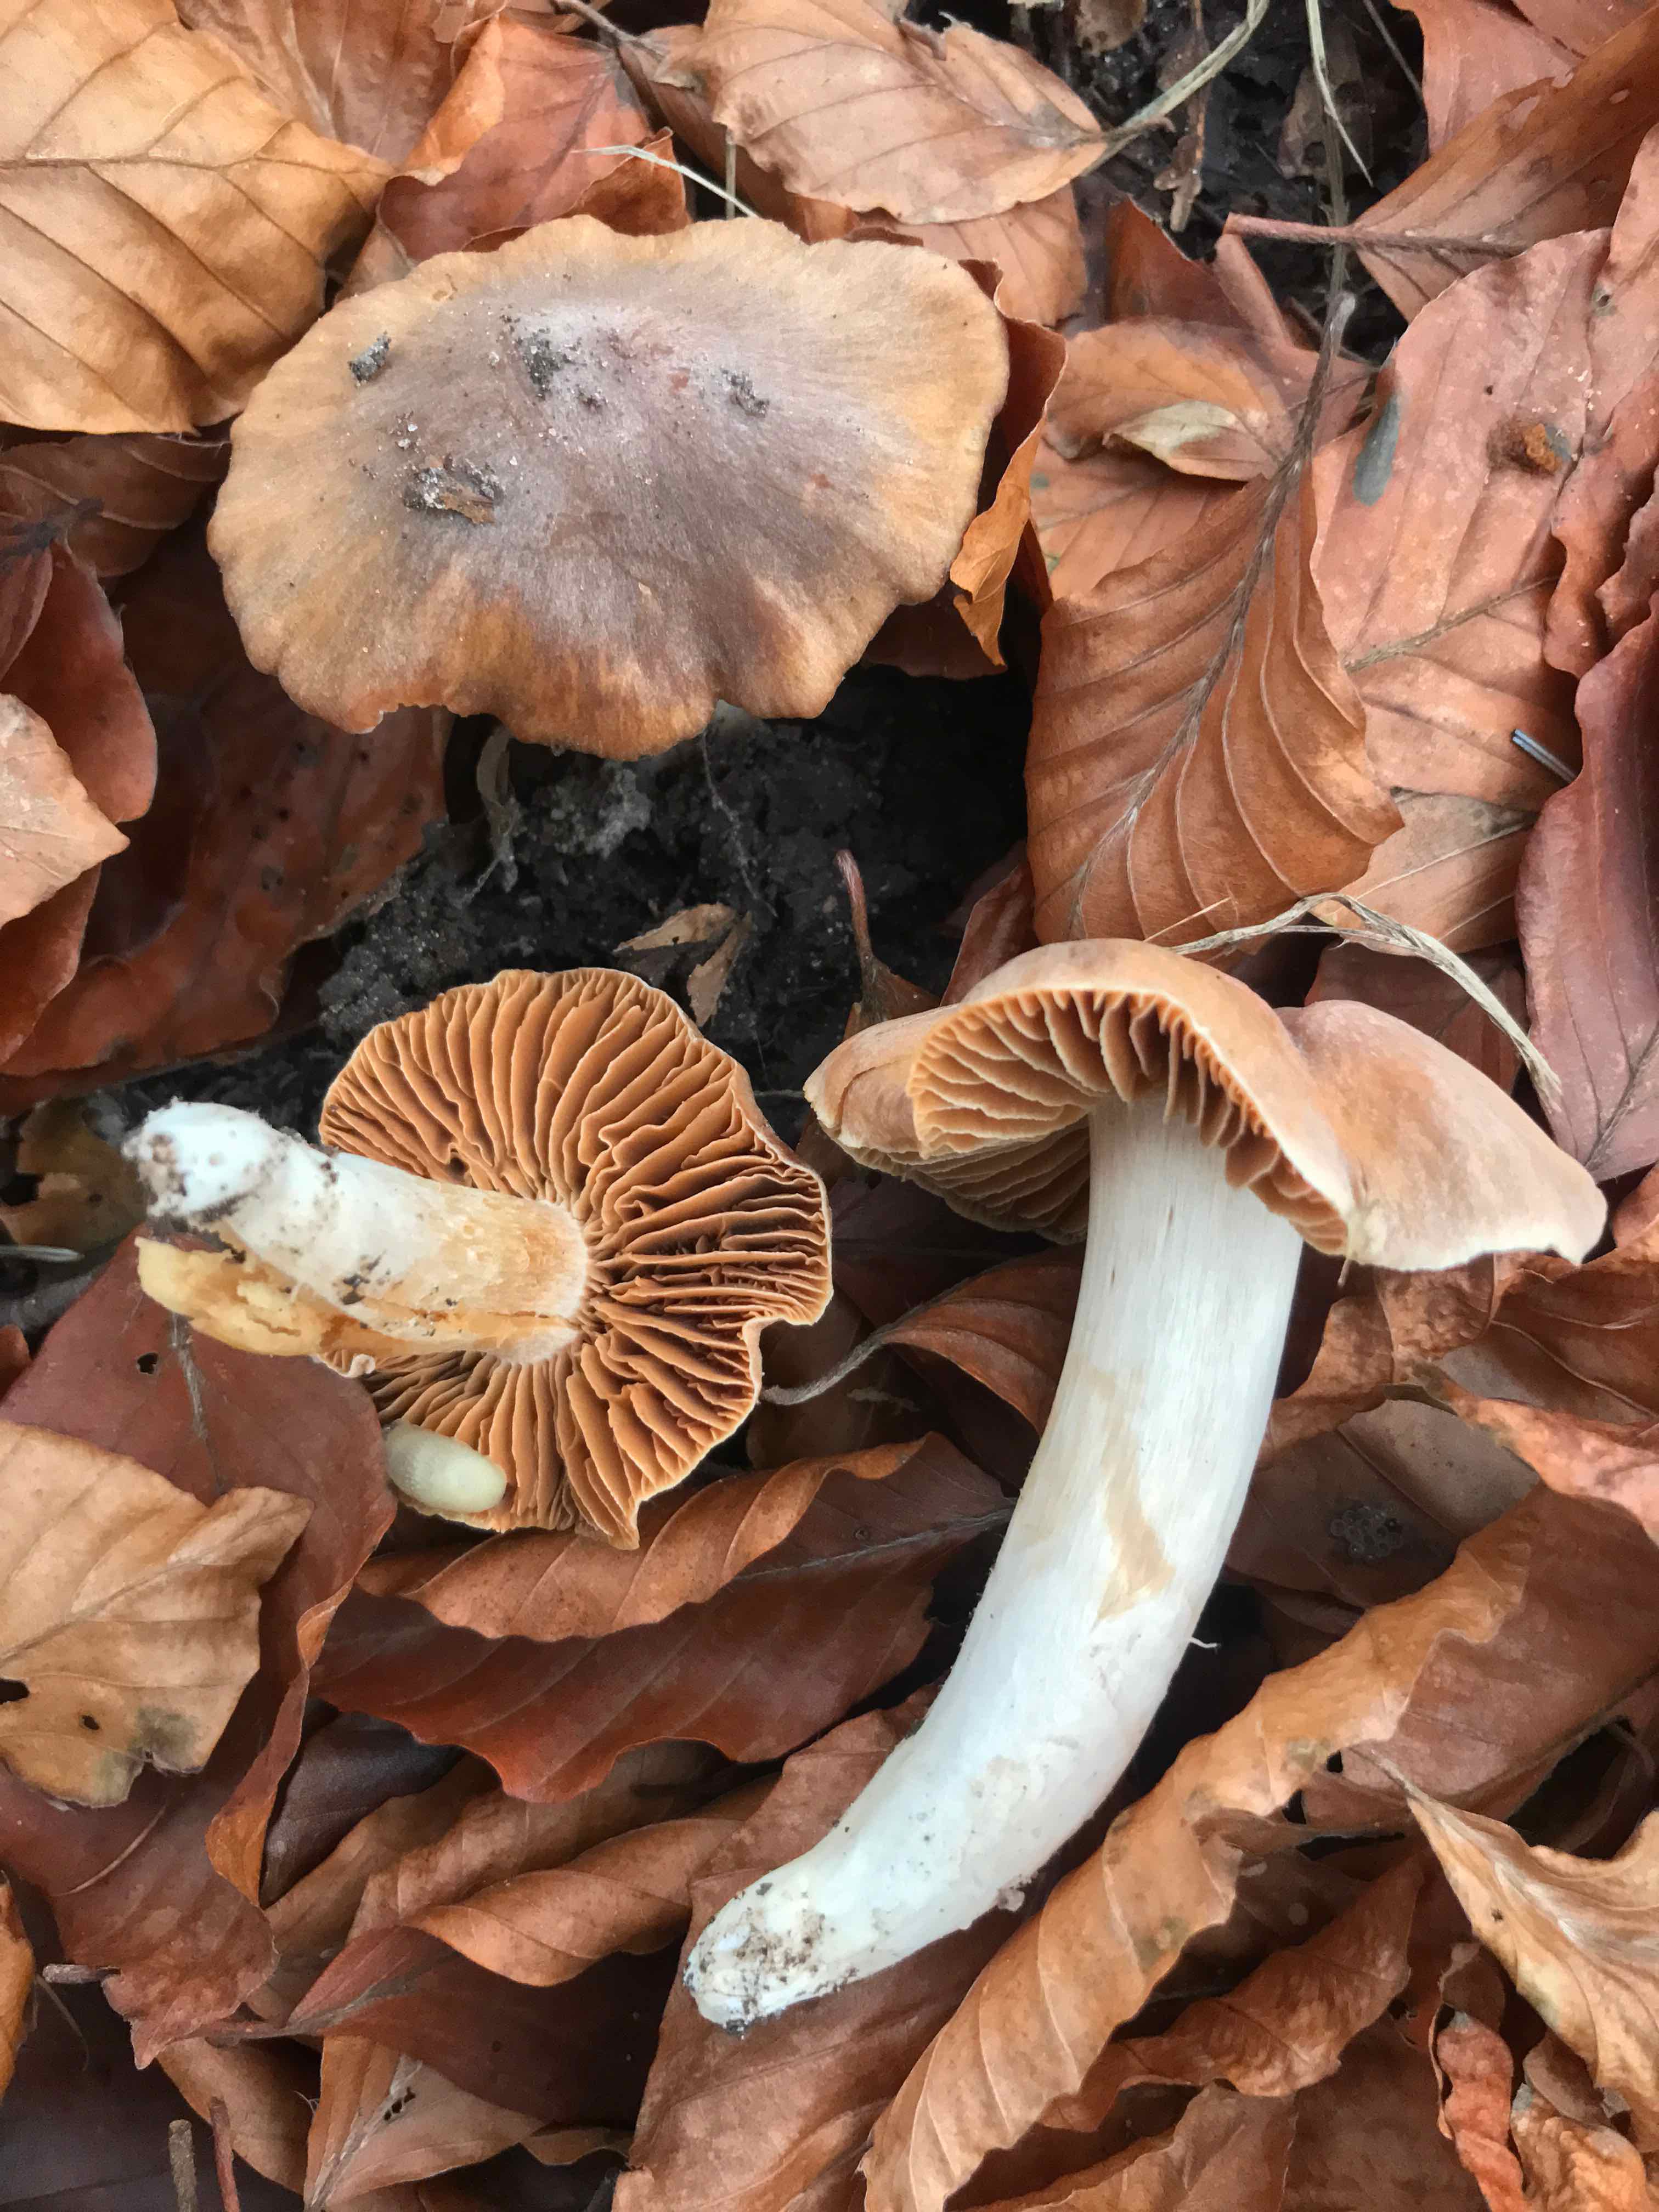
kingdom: Fungi
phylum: Basidiomycota
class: Agaricomycetes
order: Agaricales
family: Cortinariaceae
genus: Cortinarius
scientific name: Cortinarius
